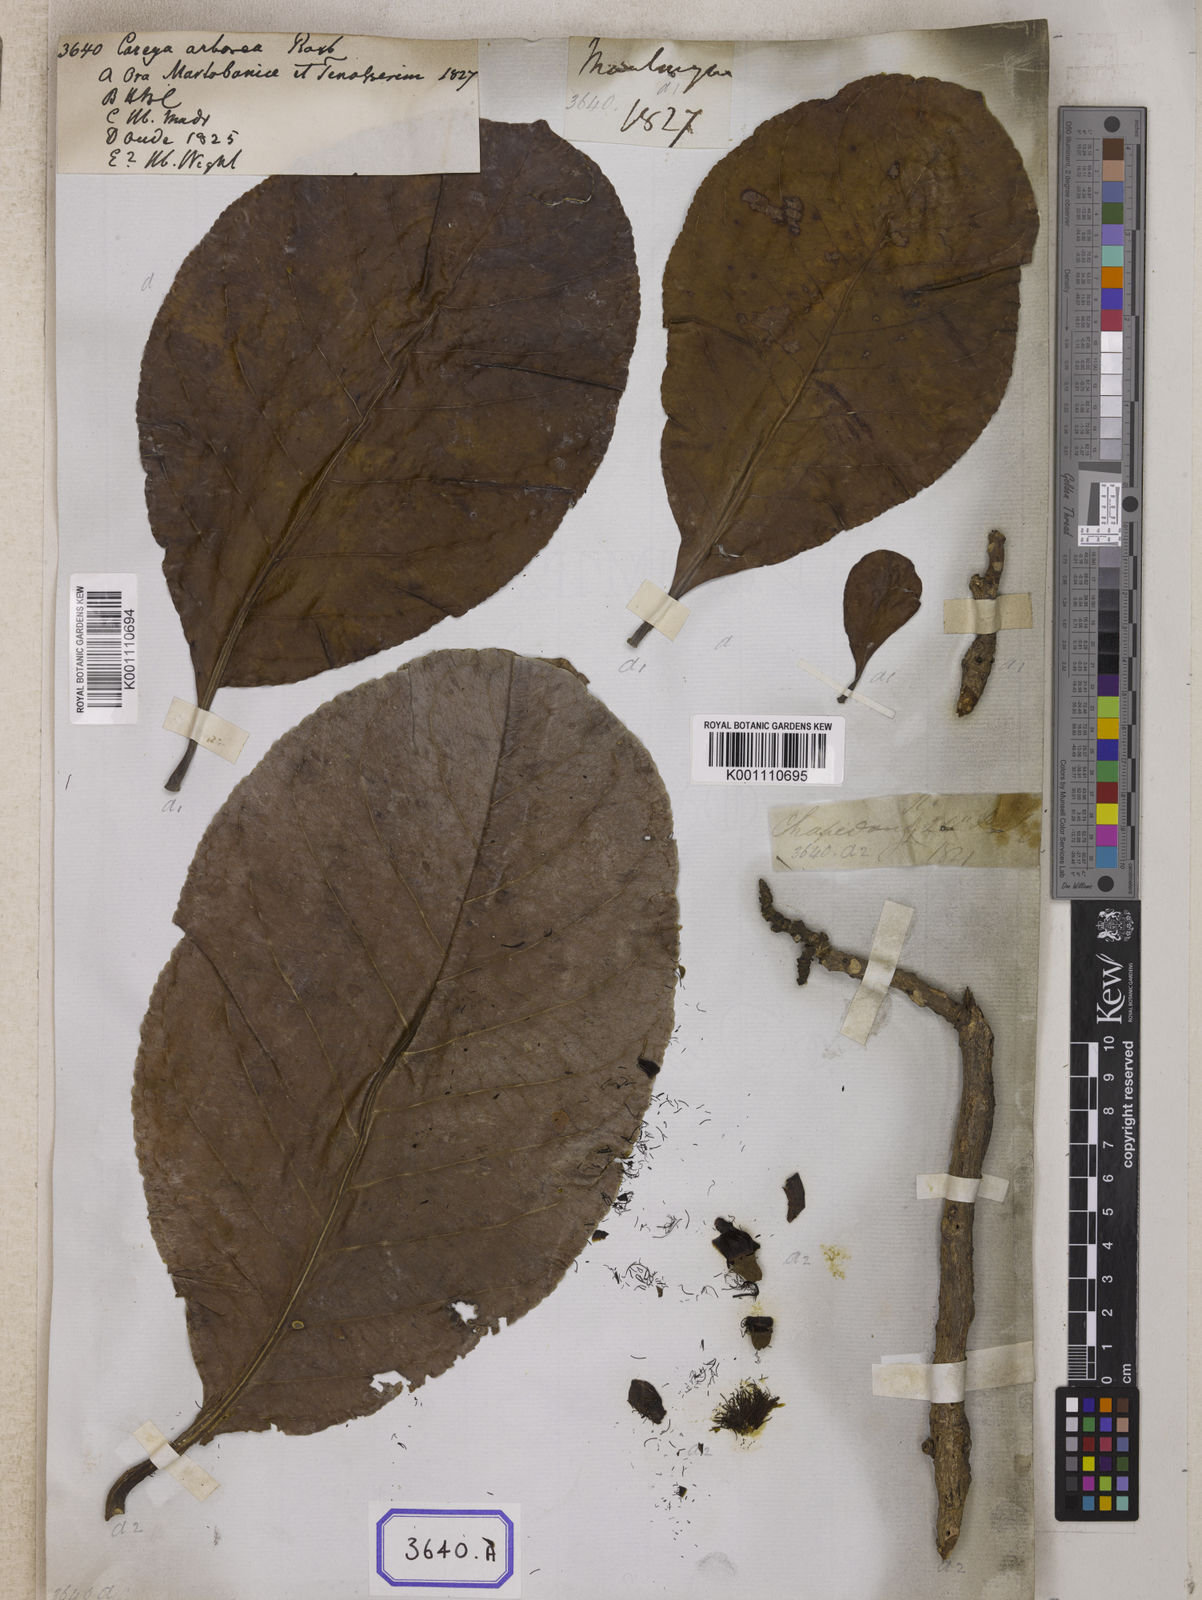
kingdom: Plantae
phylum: Tracheophyta
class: Magnoliopsida
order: Ericales
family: Lecythidaceae
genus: Careya
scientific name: Careya arborea
